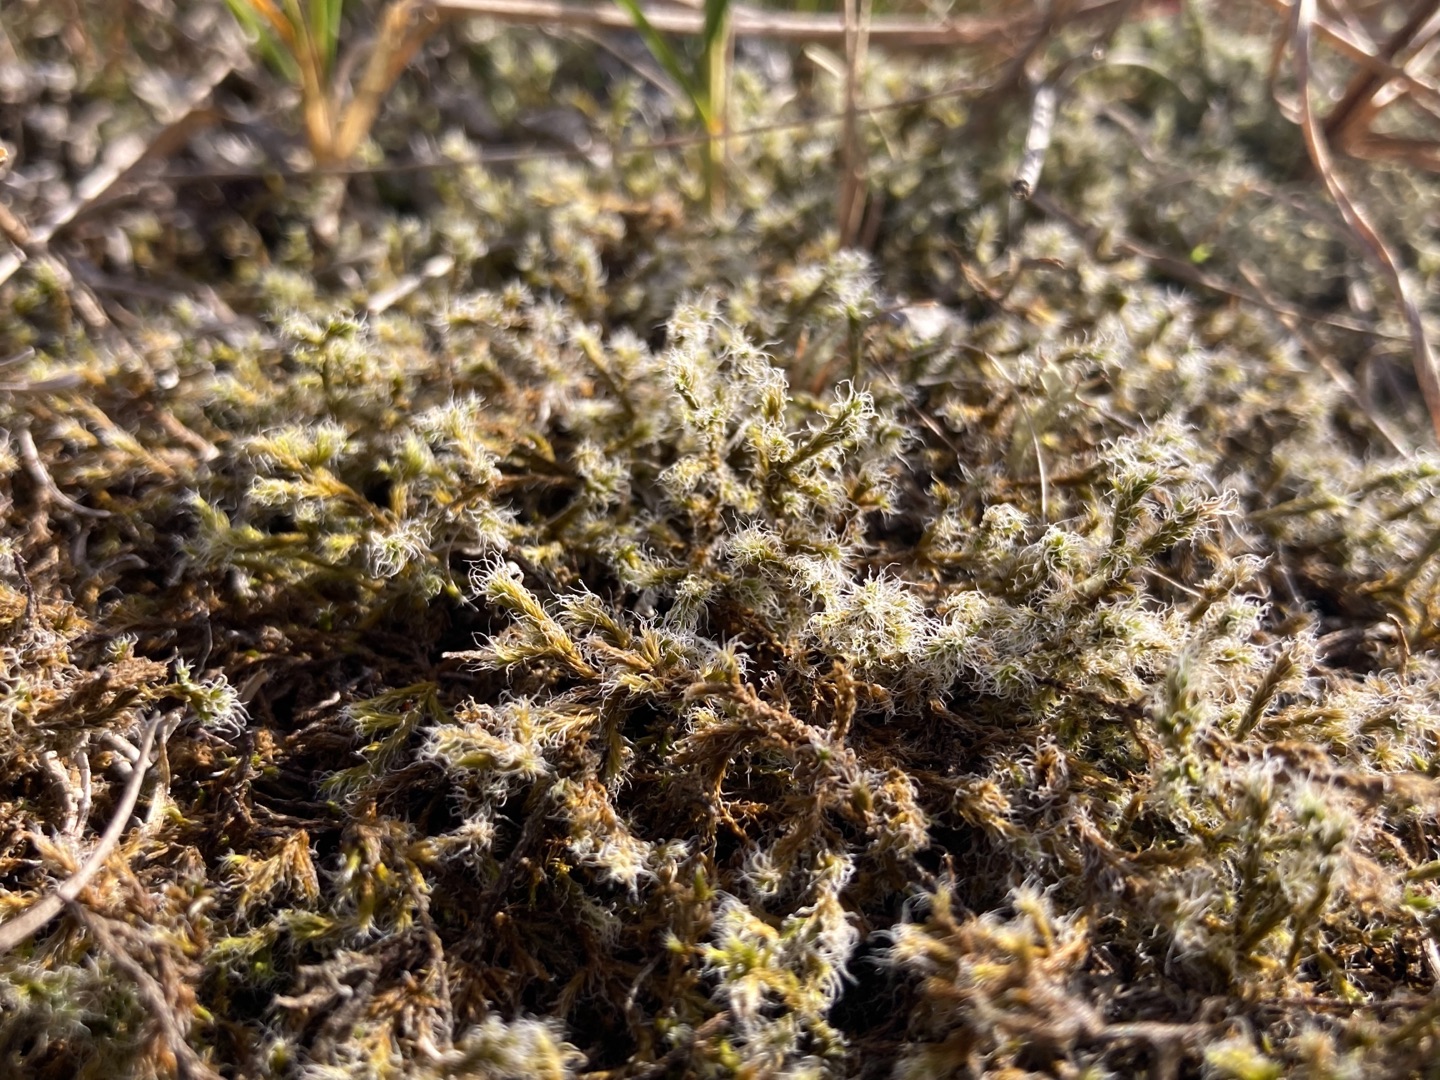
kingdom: Plantae
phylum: Bryophyta
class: Bryopsida
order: Grimmiales
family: Grimmiaceae
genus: Racomitrium
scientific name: Racomitrium lanuginosum
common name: Stor børstemos
